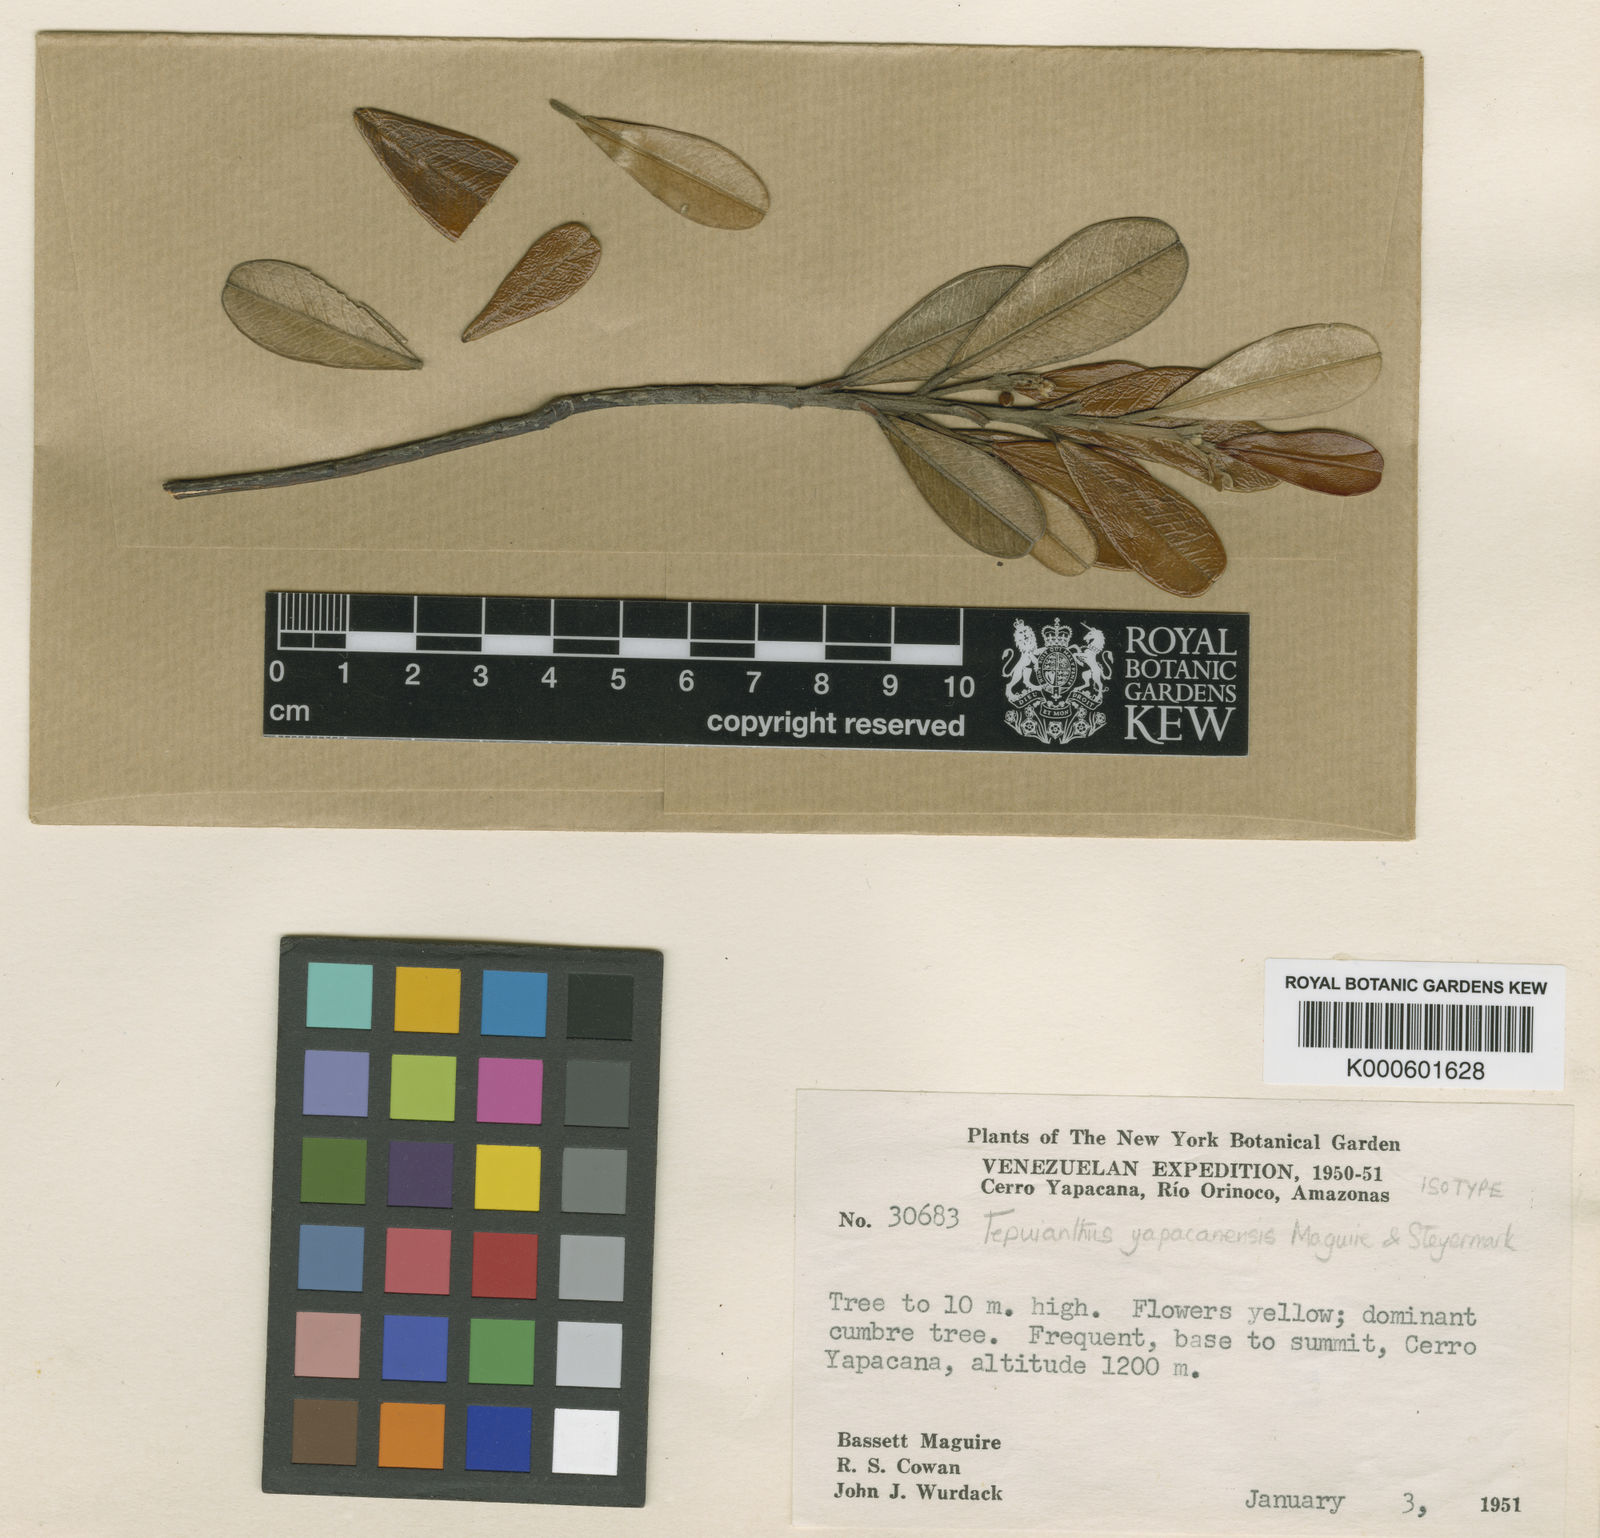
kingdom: Plantae
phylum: Tracheophyta
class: Magnoliopsida
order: Malvales
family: Thymelaeaceae
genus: Tepuianthus
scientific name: Tepuianthus yapacanensis
